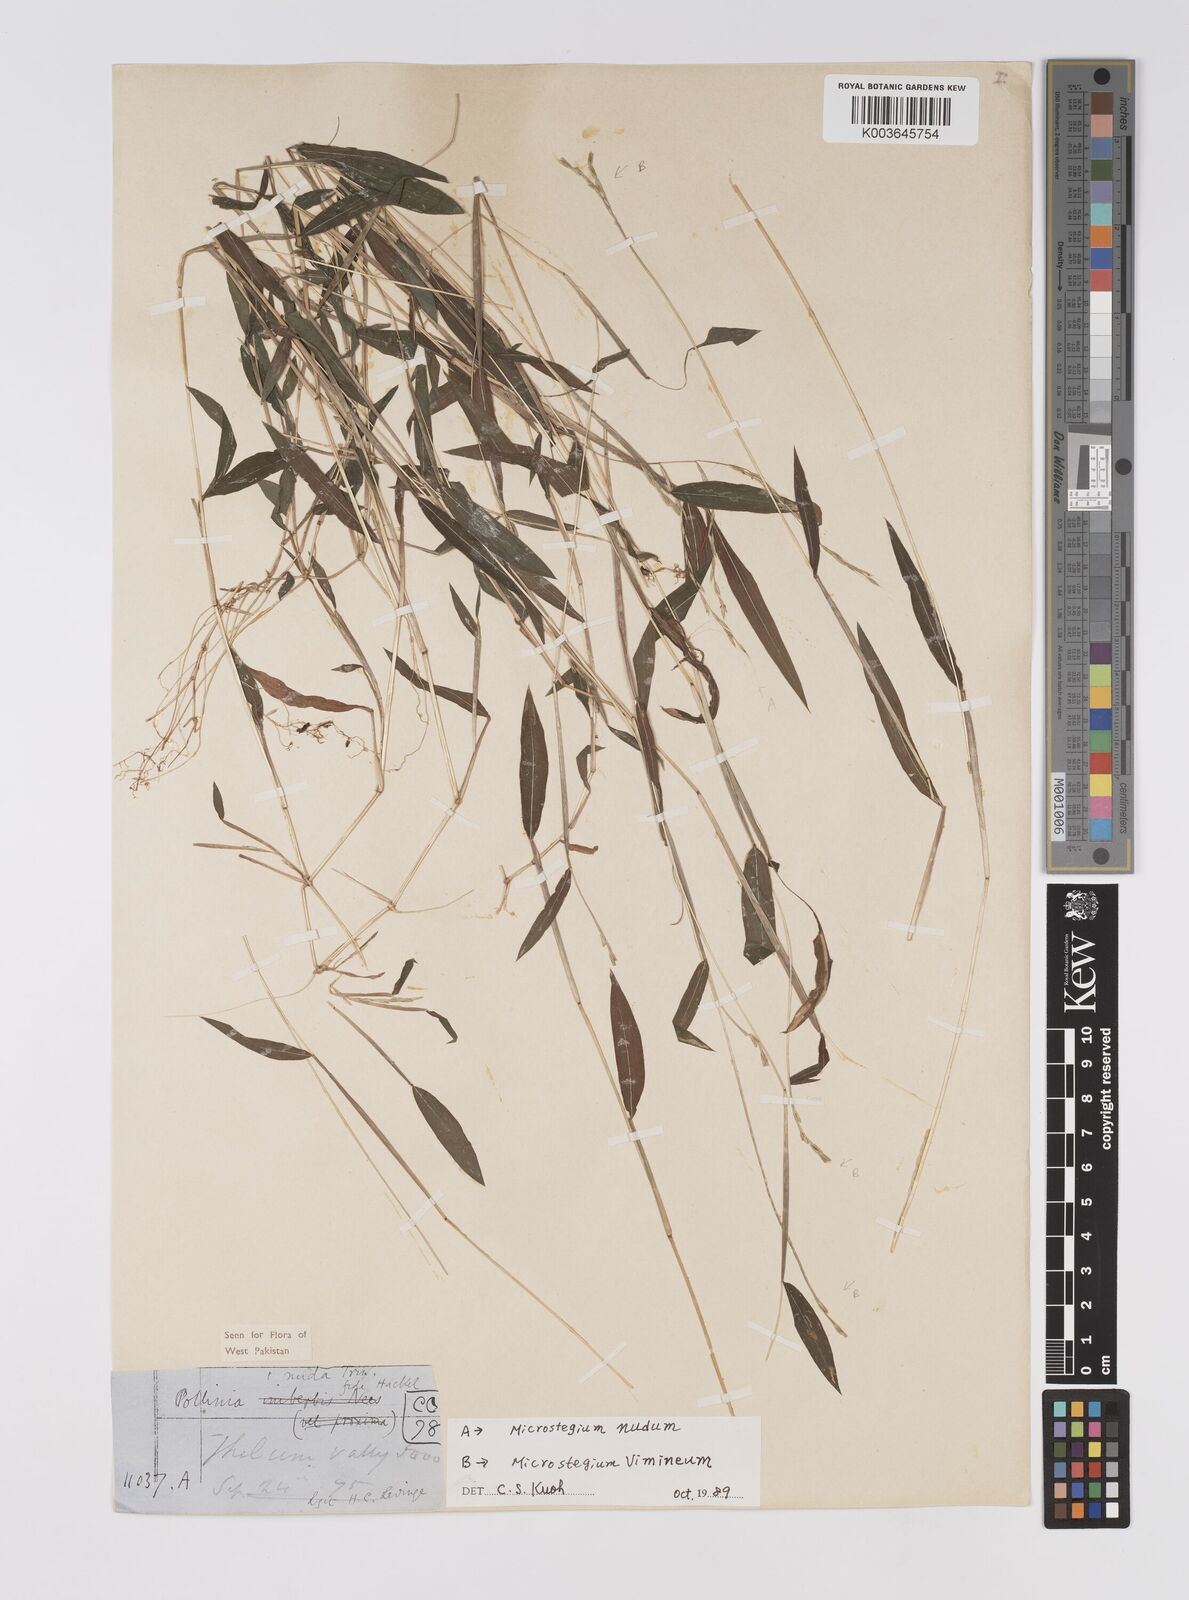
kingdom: Plantae
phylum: Tracheophyta
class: Liliopsida
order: Poales
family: Poaceae
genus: Microstegium
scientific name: Microstegium nudum
